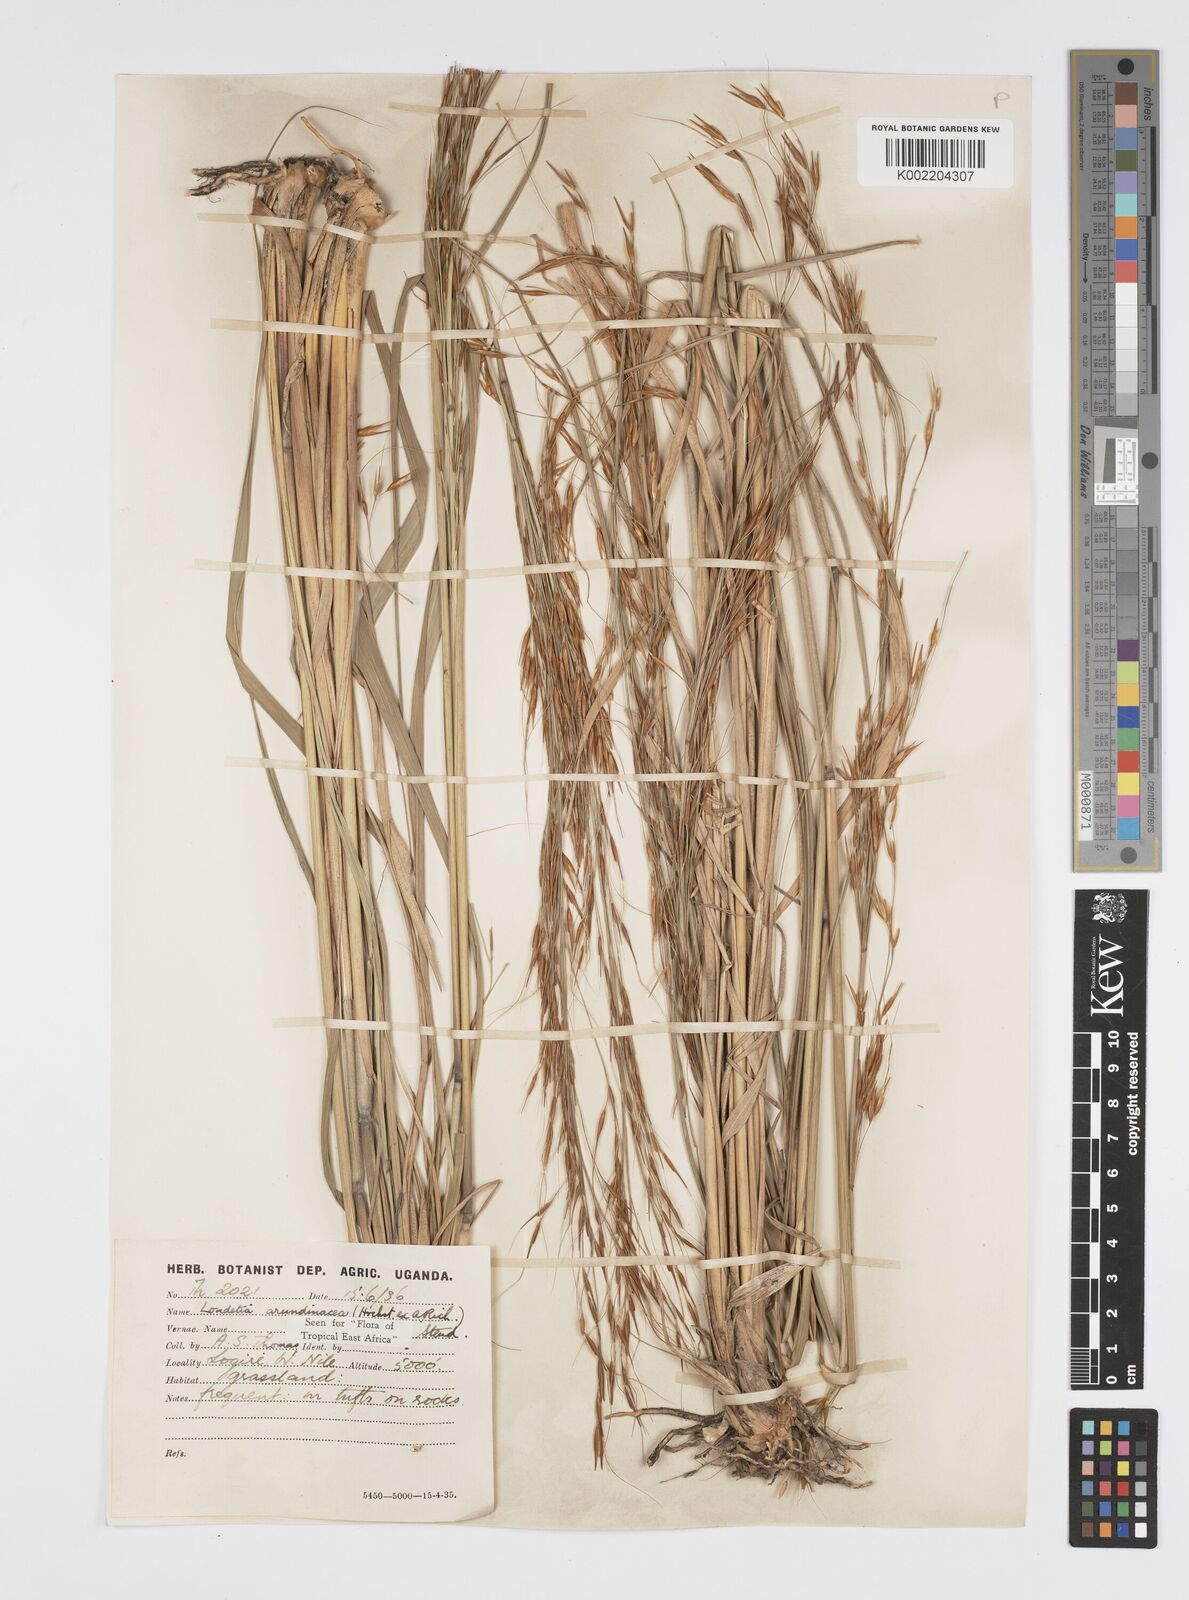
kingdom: Plantae
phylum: Tracheophyta
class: Liliopsida
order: Poales
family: Poaceae
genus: Loudetia
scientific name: Loudetia arundinacea
